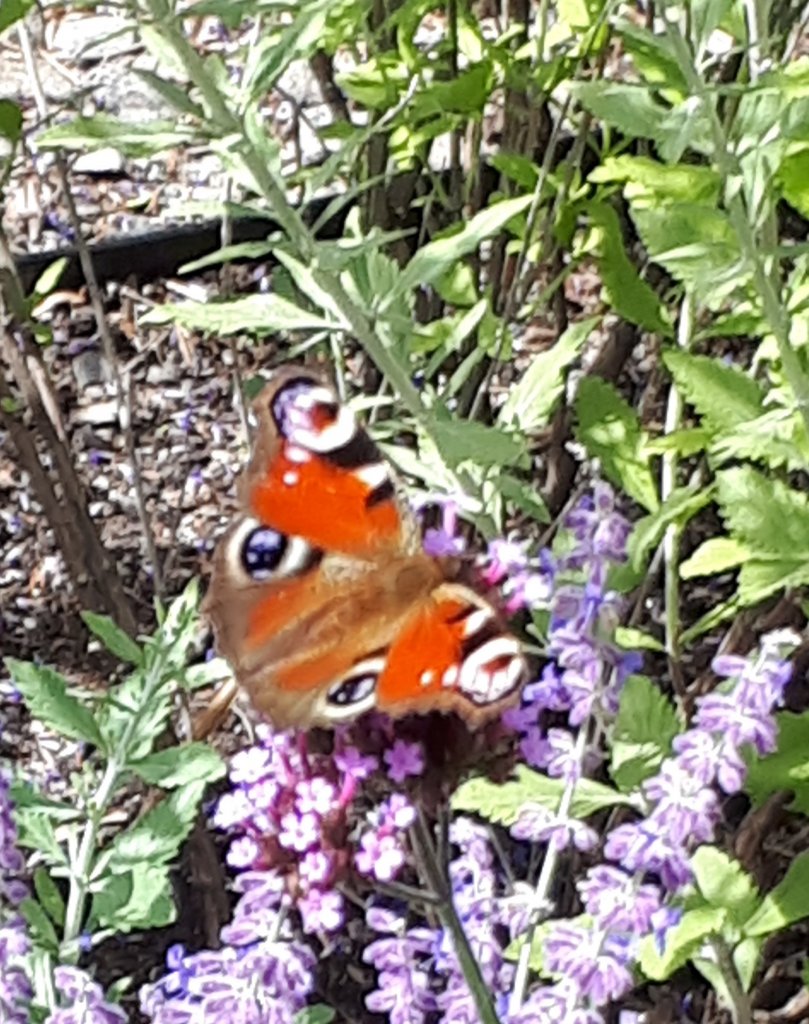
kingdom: Animalia
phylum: Arthropoda
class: Insecta
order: Lepidoptera
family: Nymphalidae
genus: Aglais
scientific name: Aglais io
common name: European Peacock
